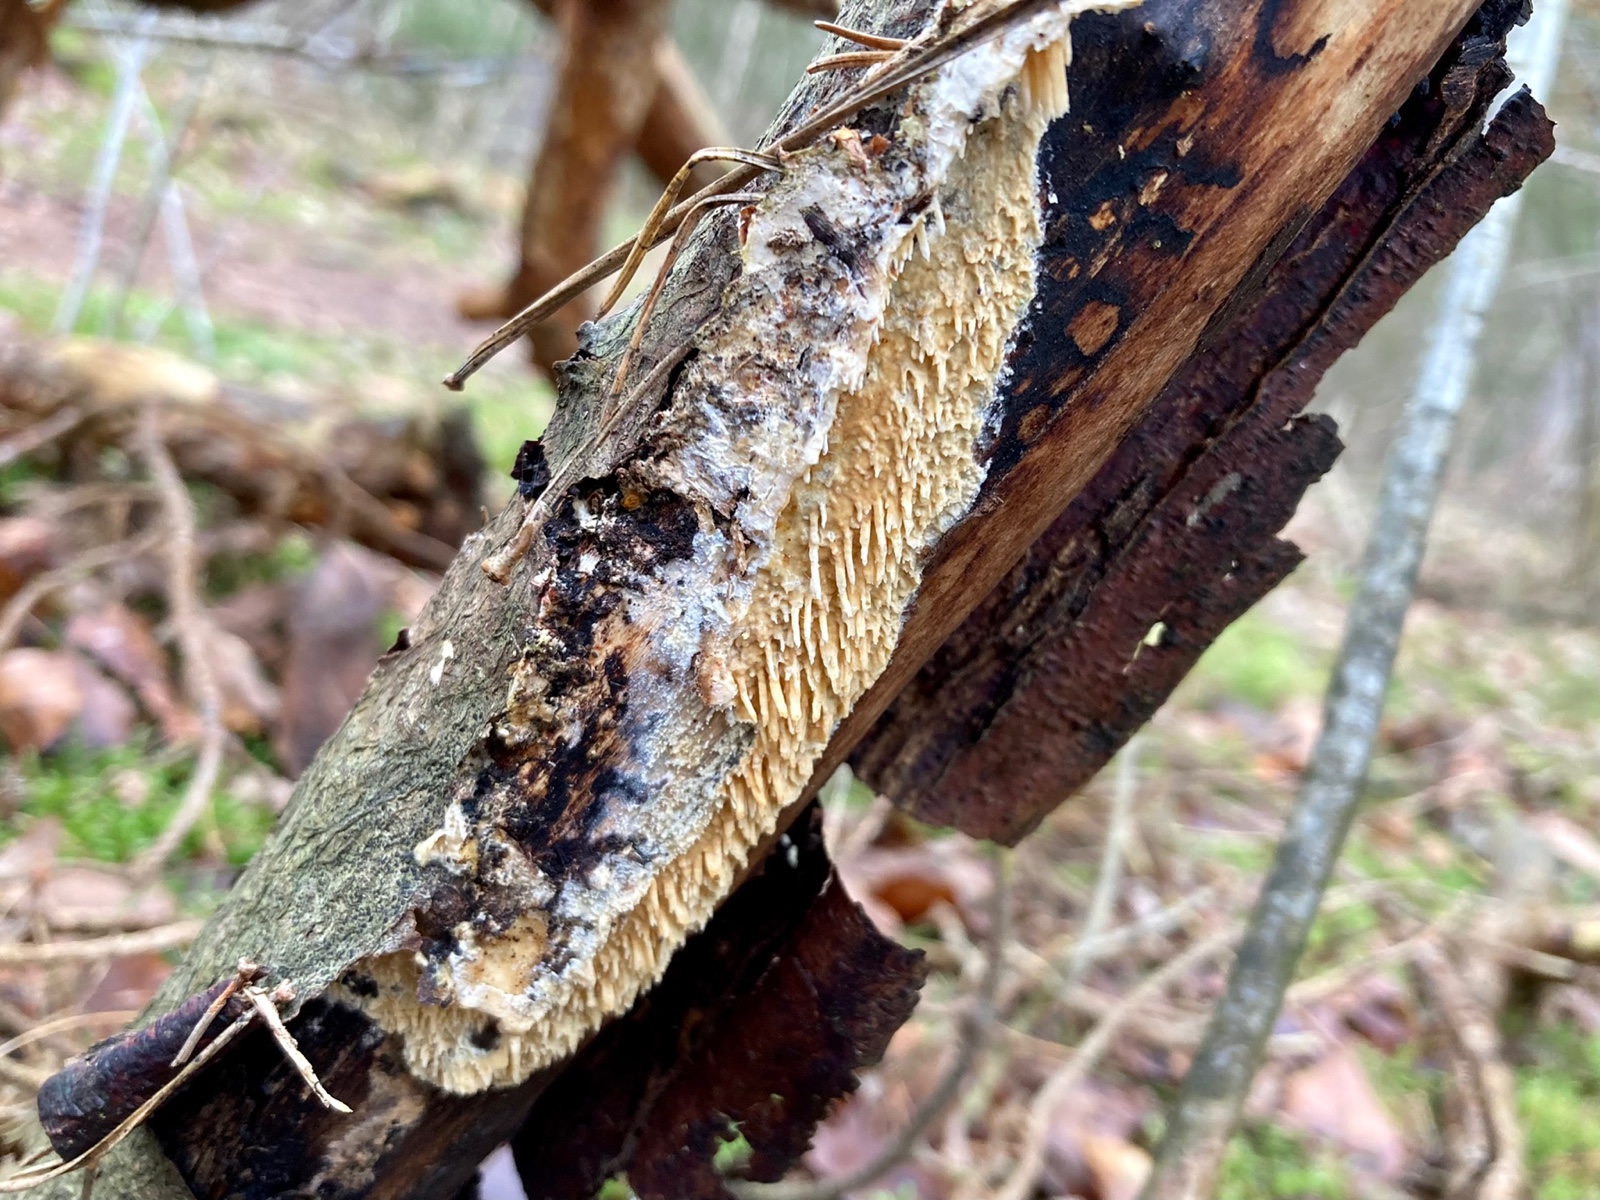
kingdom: Fungi
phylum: Basidiomycota
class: Agaricomycetes
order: Hymenochaetales
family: Schizoporaceae
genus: Xylodon
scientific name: Xylodon radula
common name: grovtandet kalkskind
